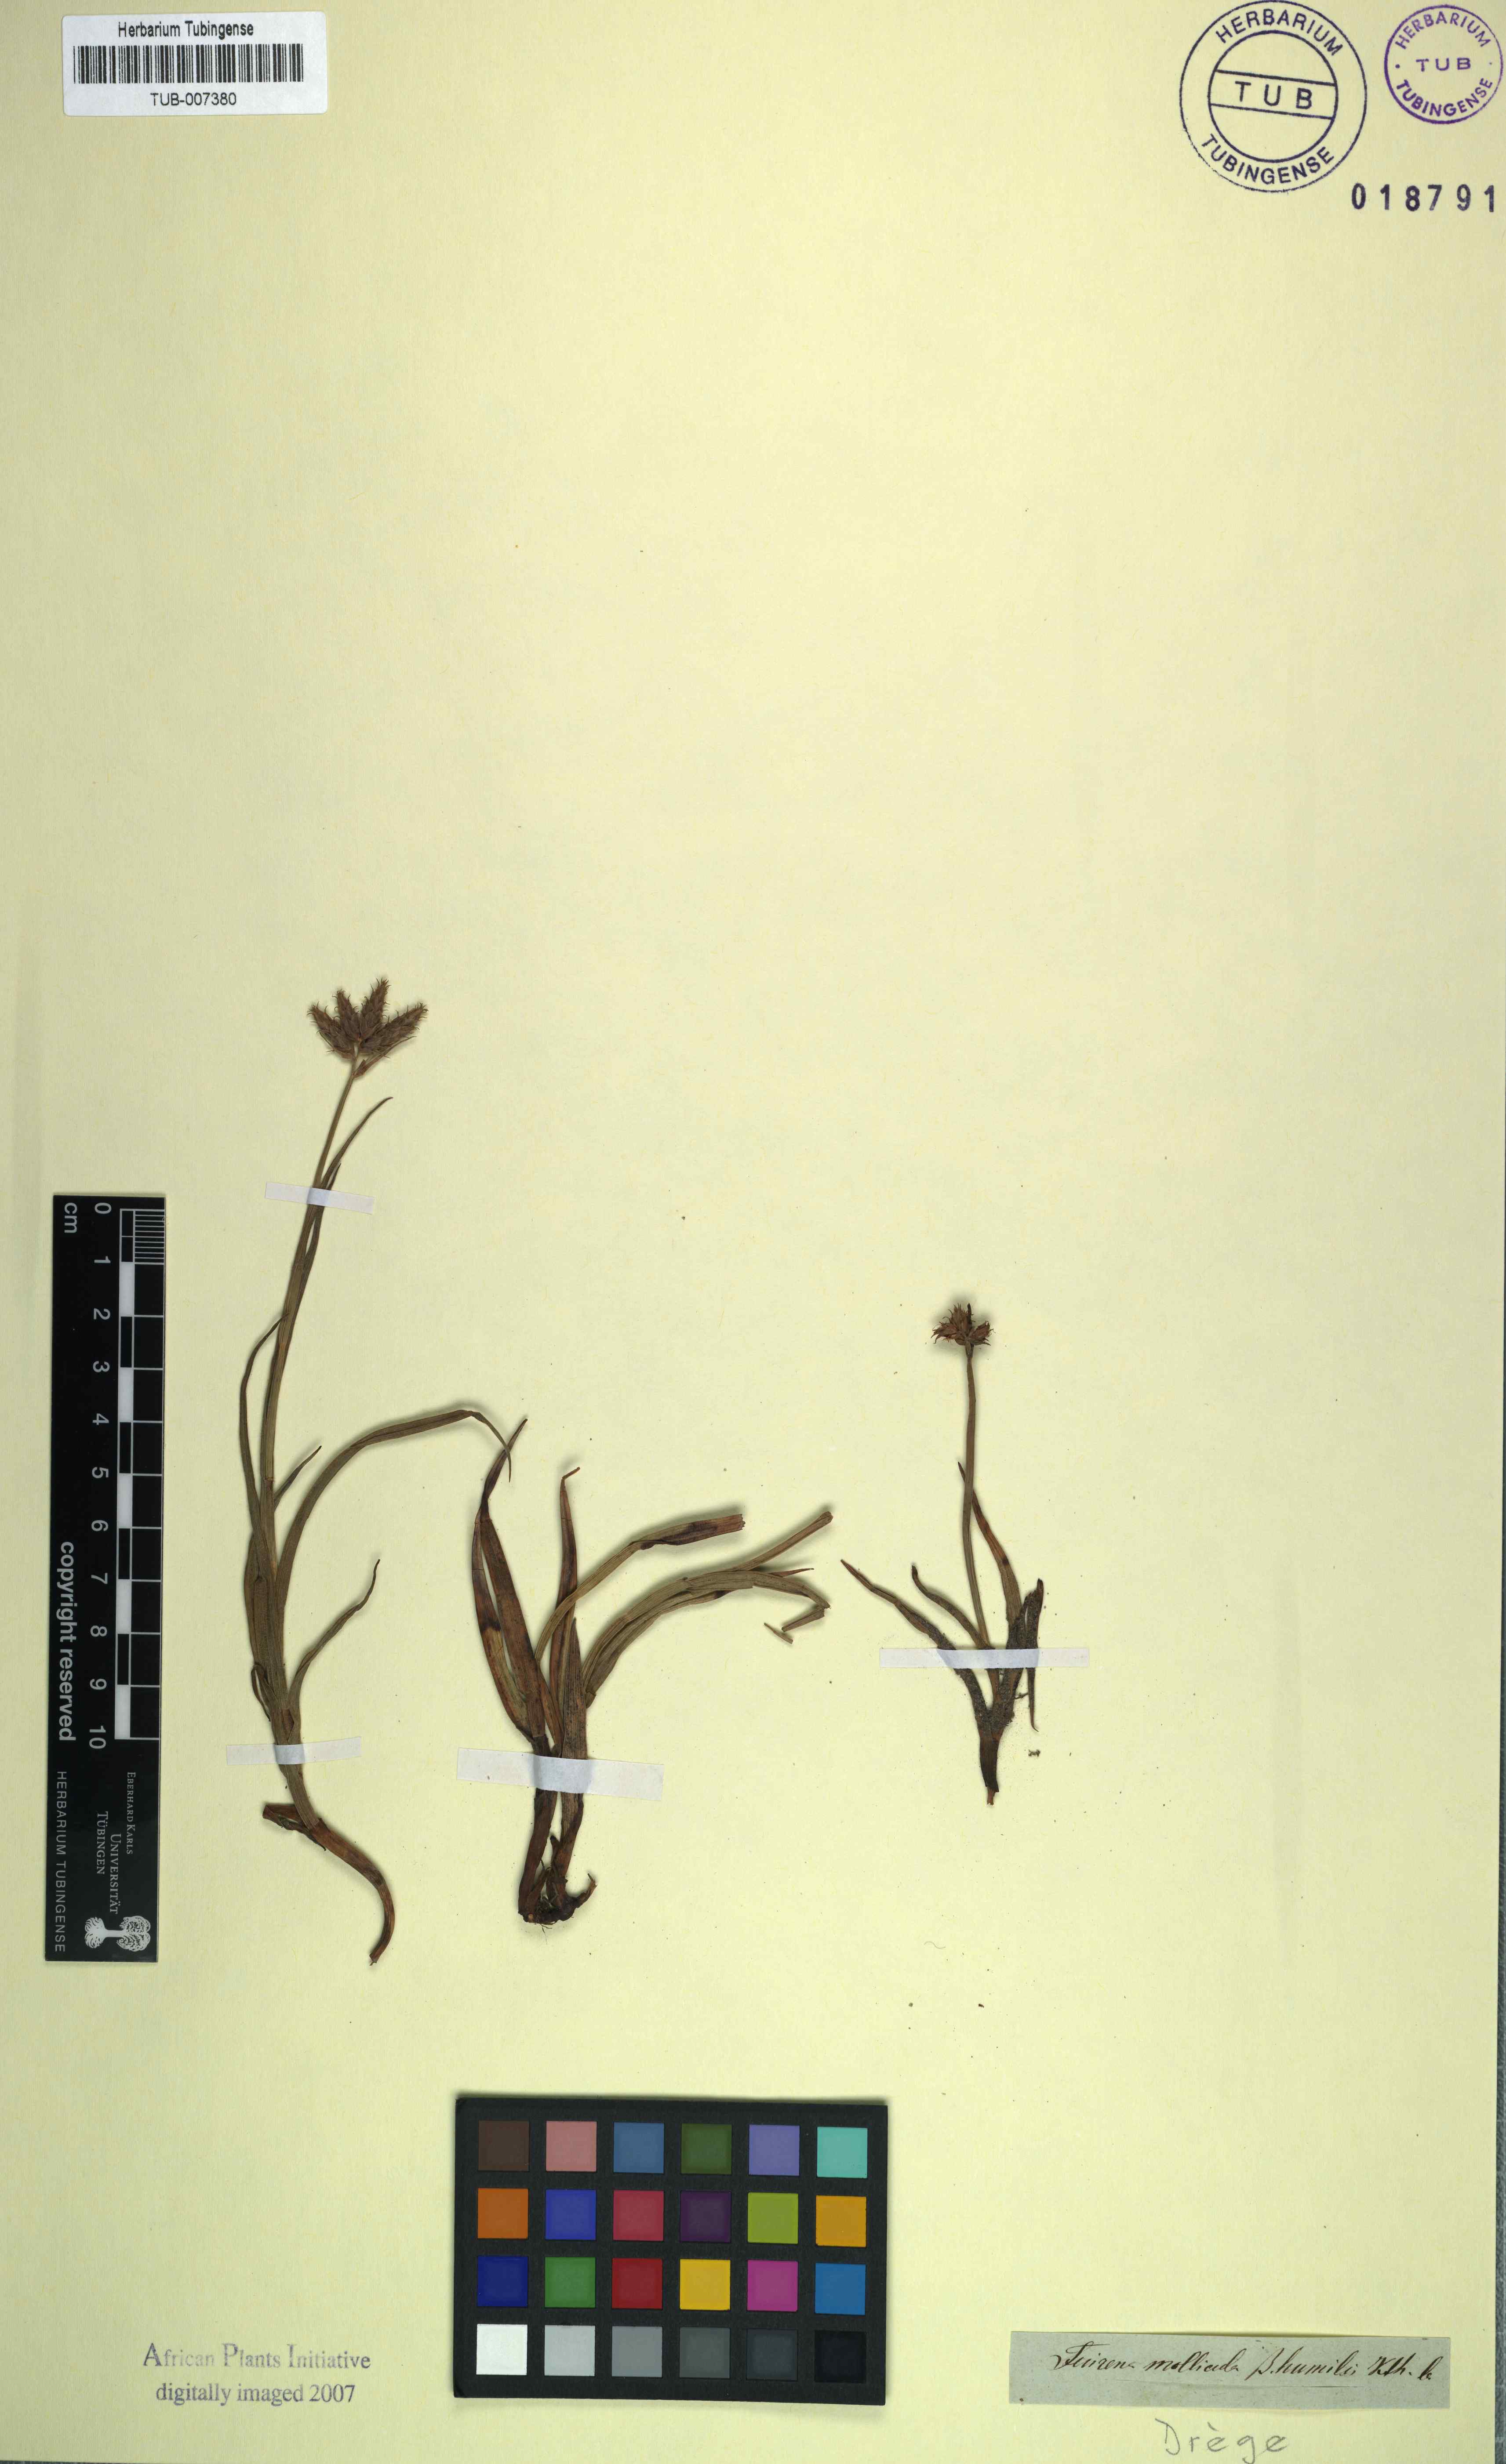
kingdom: Plantae
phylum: Tracheophyta
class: Liliopsida
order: Poales
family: Cyperaceae
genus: Fuirena
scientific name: Fuirena ecklonii
